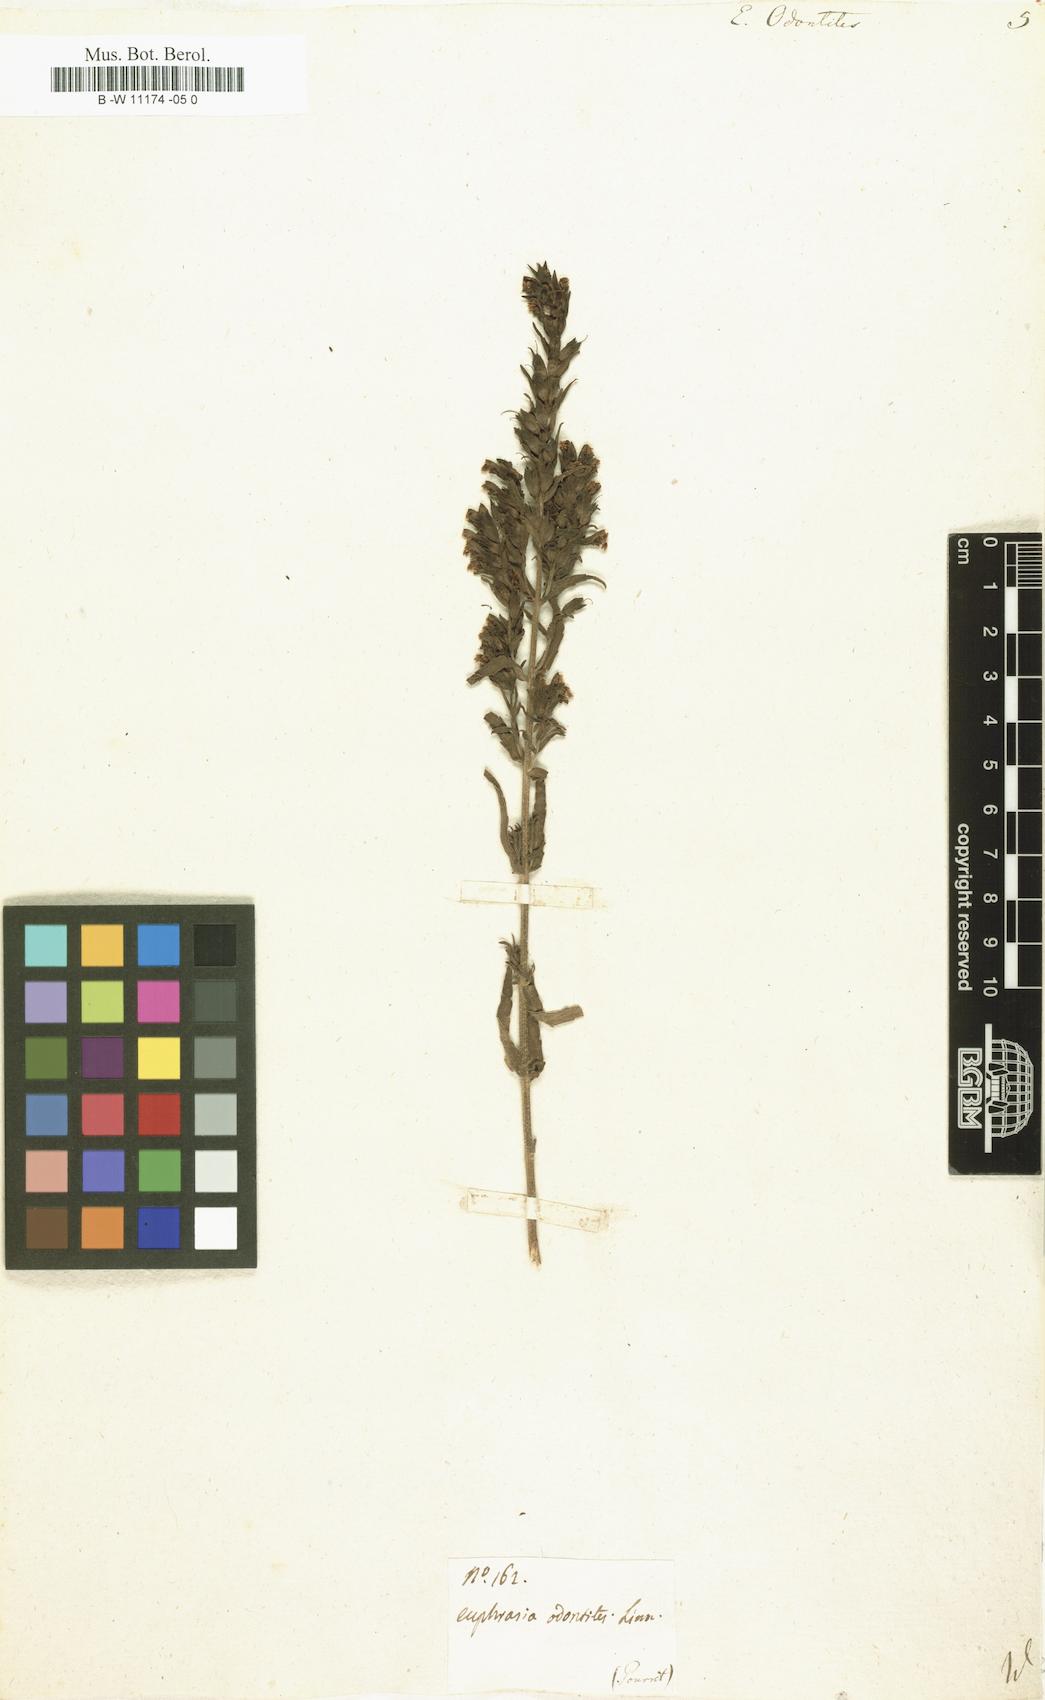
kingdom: Plantae
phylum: Tracheophyta
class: Magnoliopsida
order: Lamiales
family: Orobanchaceae
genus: Odontites
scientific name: Odontites vulgaris
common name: Broomrape
